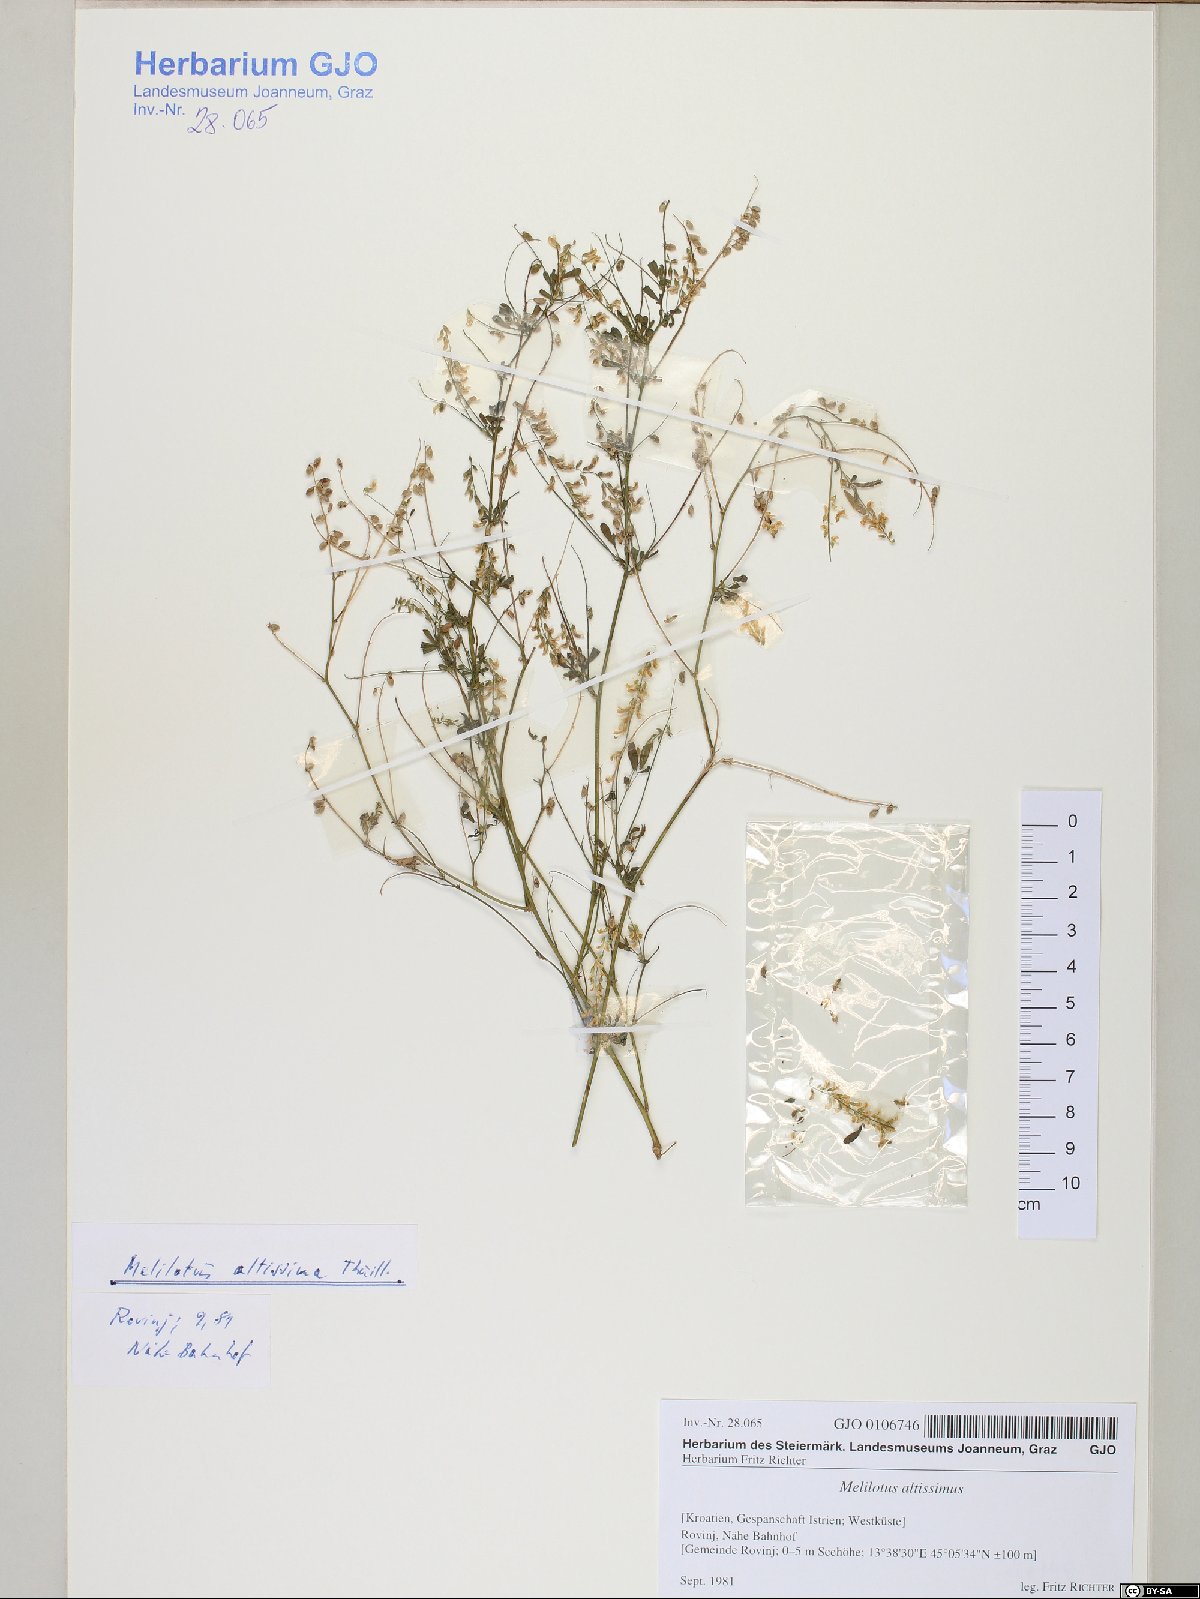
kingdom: Plantae
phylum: Tracheophyta
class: Magnoliopsida
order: Fabales
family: Fabaceae
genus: Melilotus
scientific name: Melilotus officinalis
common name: Sweetclover
